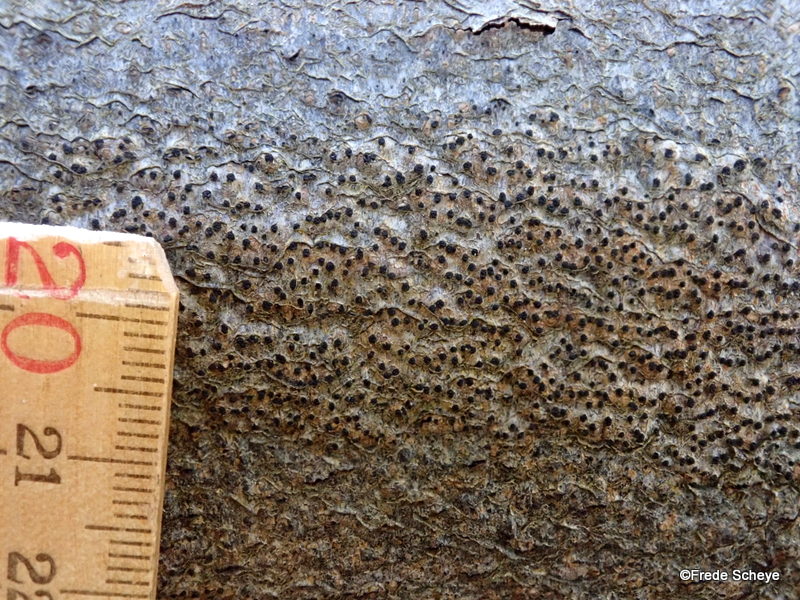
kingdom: Fungi
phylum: Ascomycota
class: Sordariomycetes
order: Xylariales
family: Diatrypaceae
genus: Eutypella
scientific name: Eutypella quaternata
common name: bøge-korsprik
